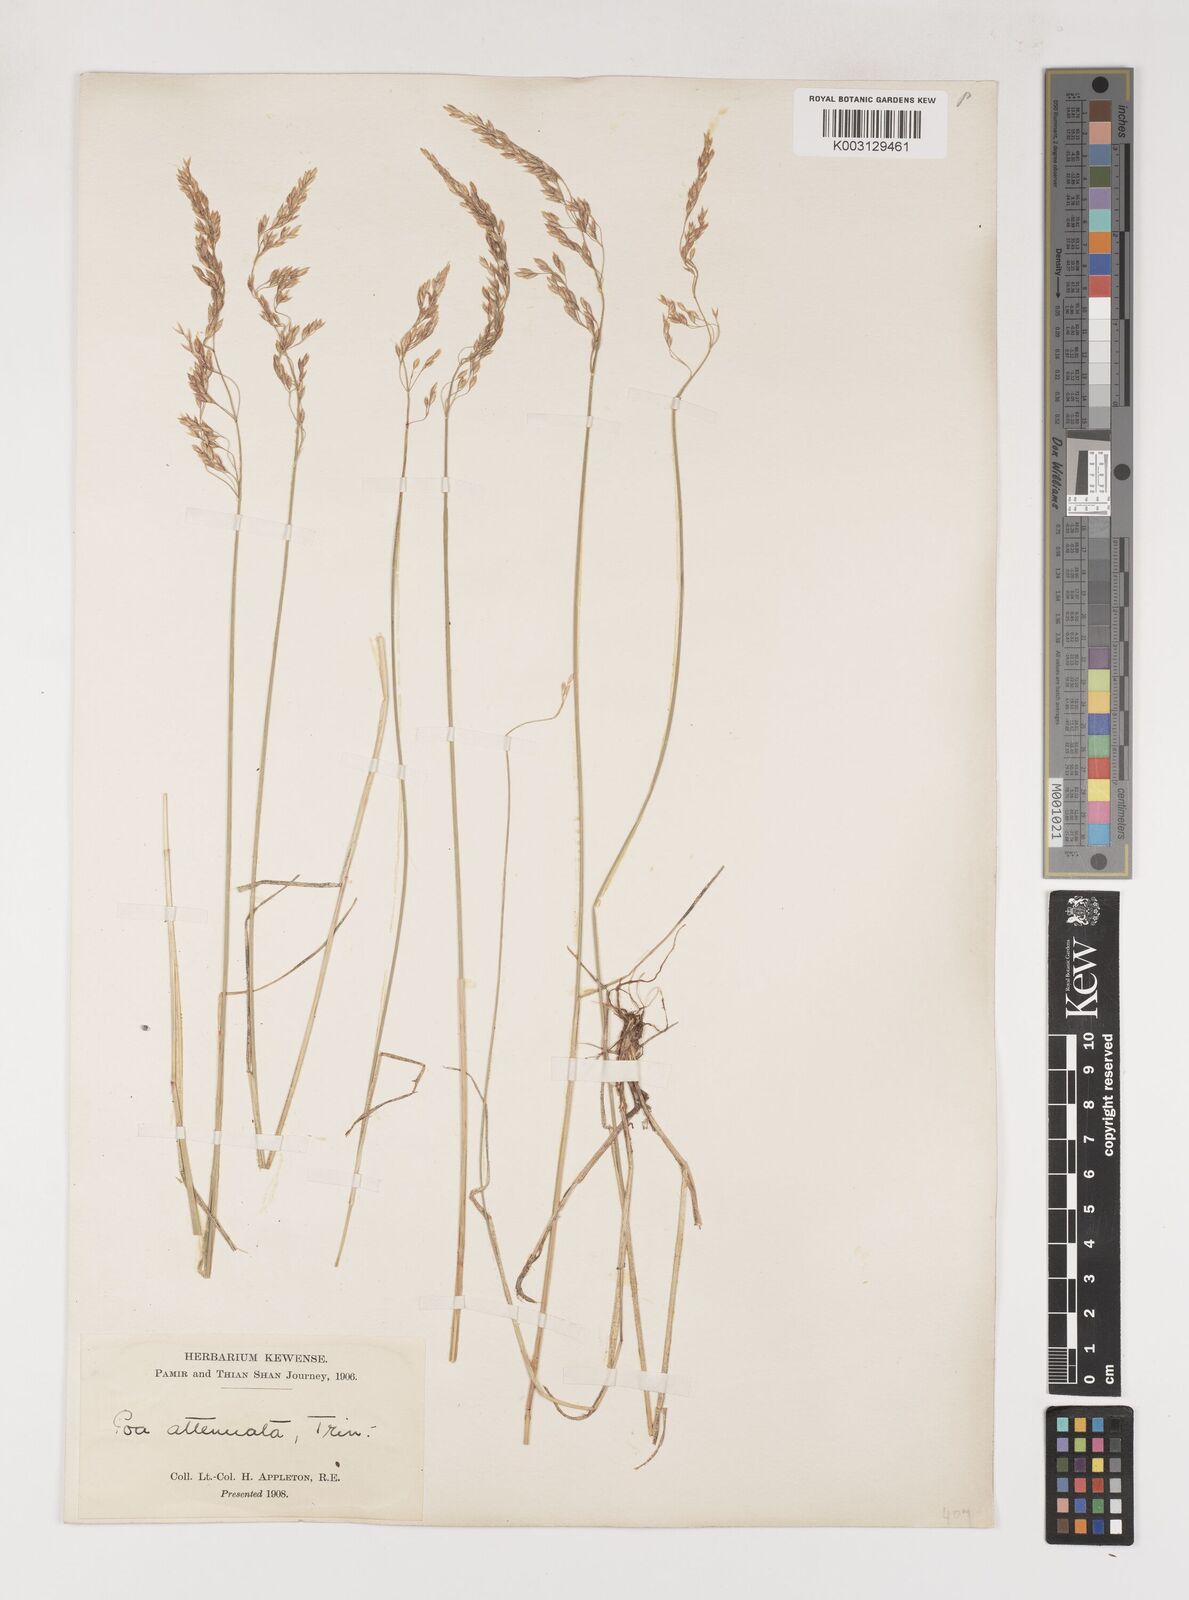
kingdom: Plantae
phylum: Tracheophyta
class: Liliopsida
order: Poales
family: Poaceae
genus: Poa
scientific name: Poa attenuata
